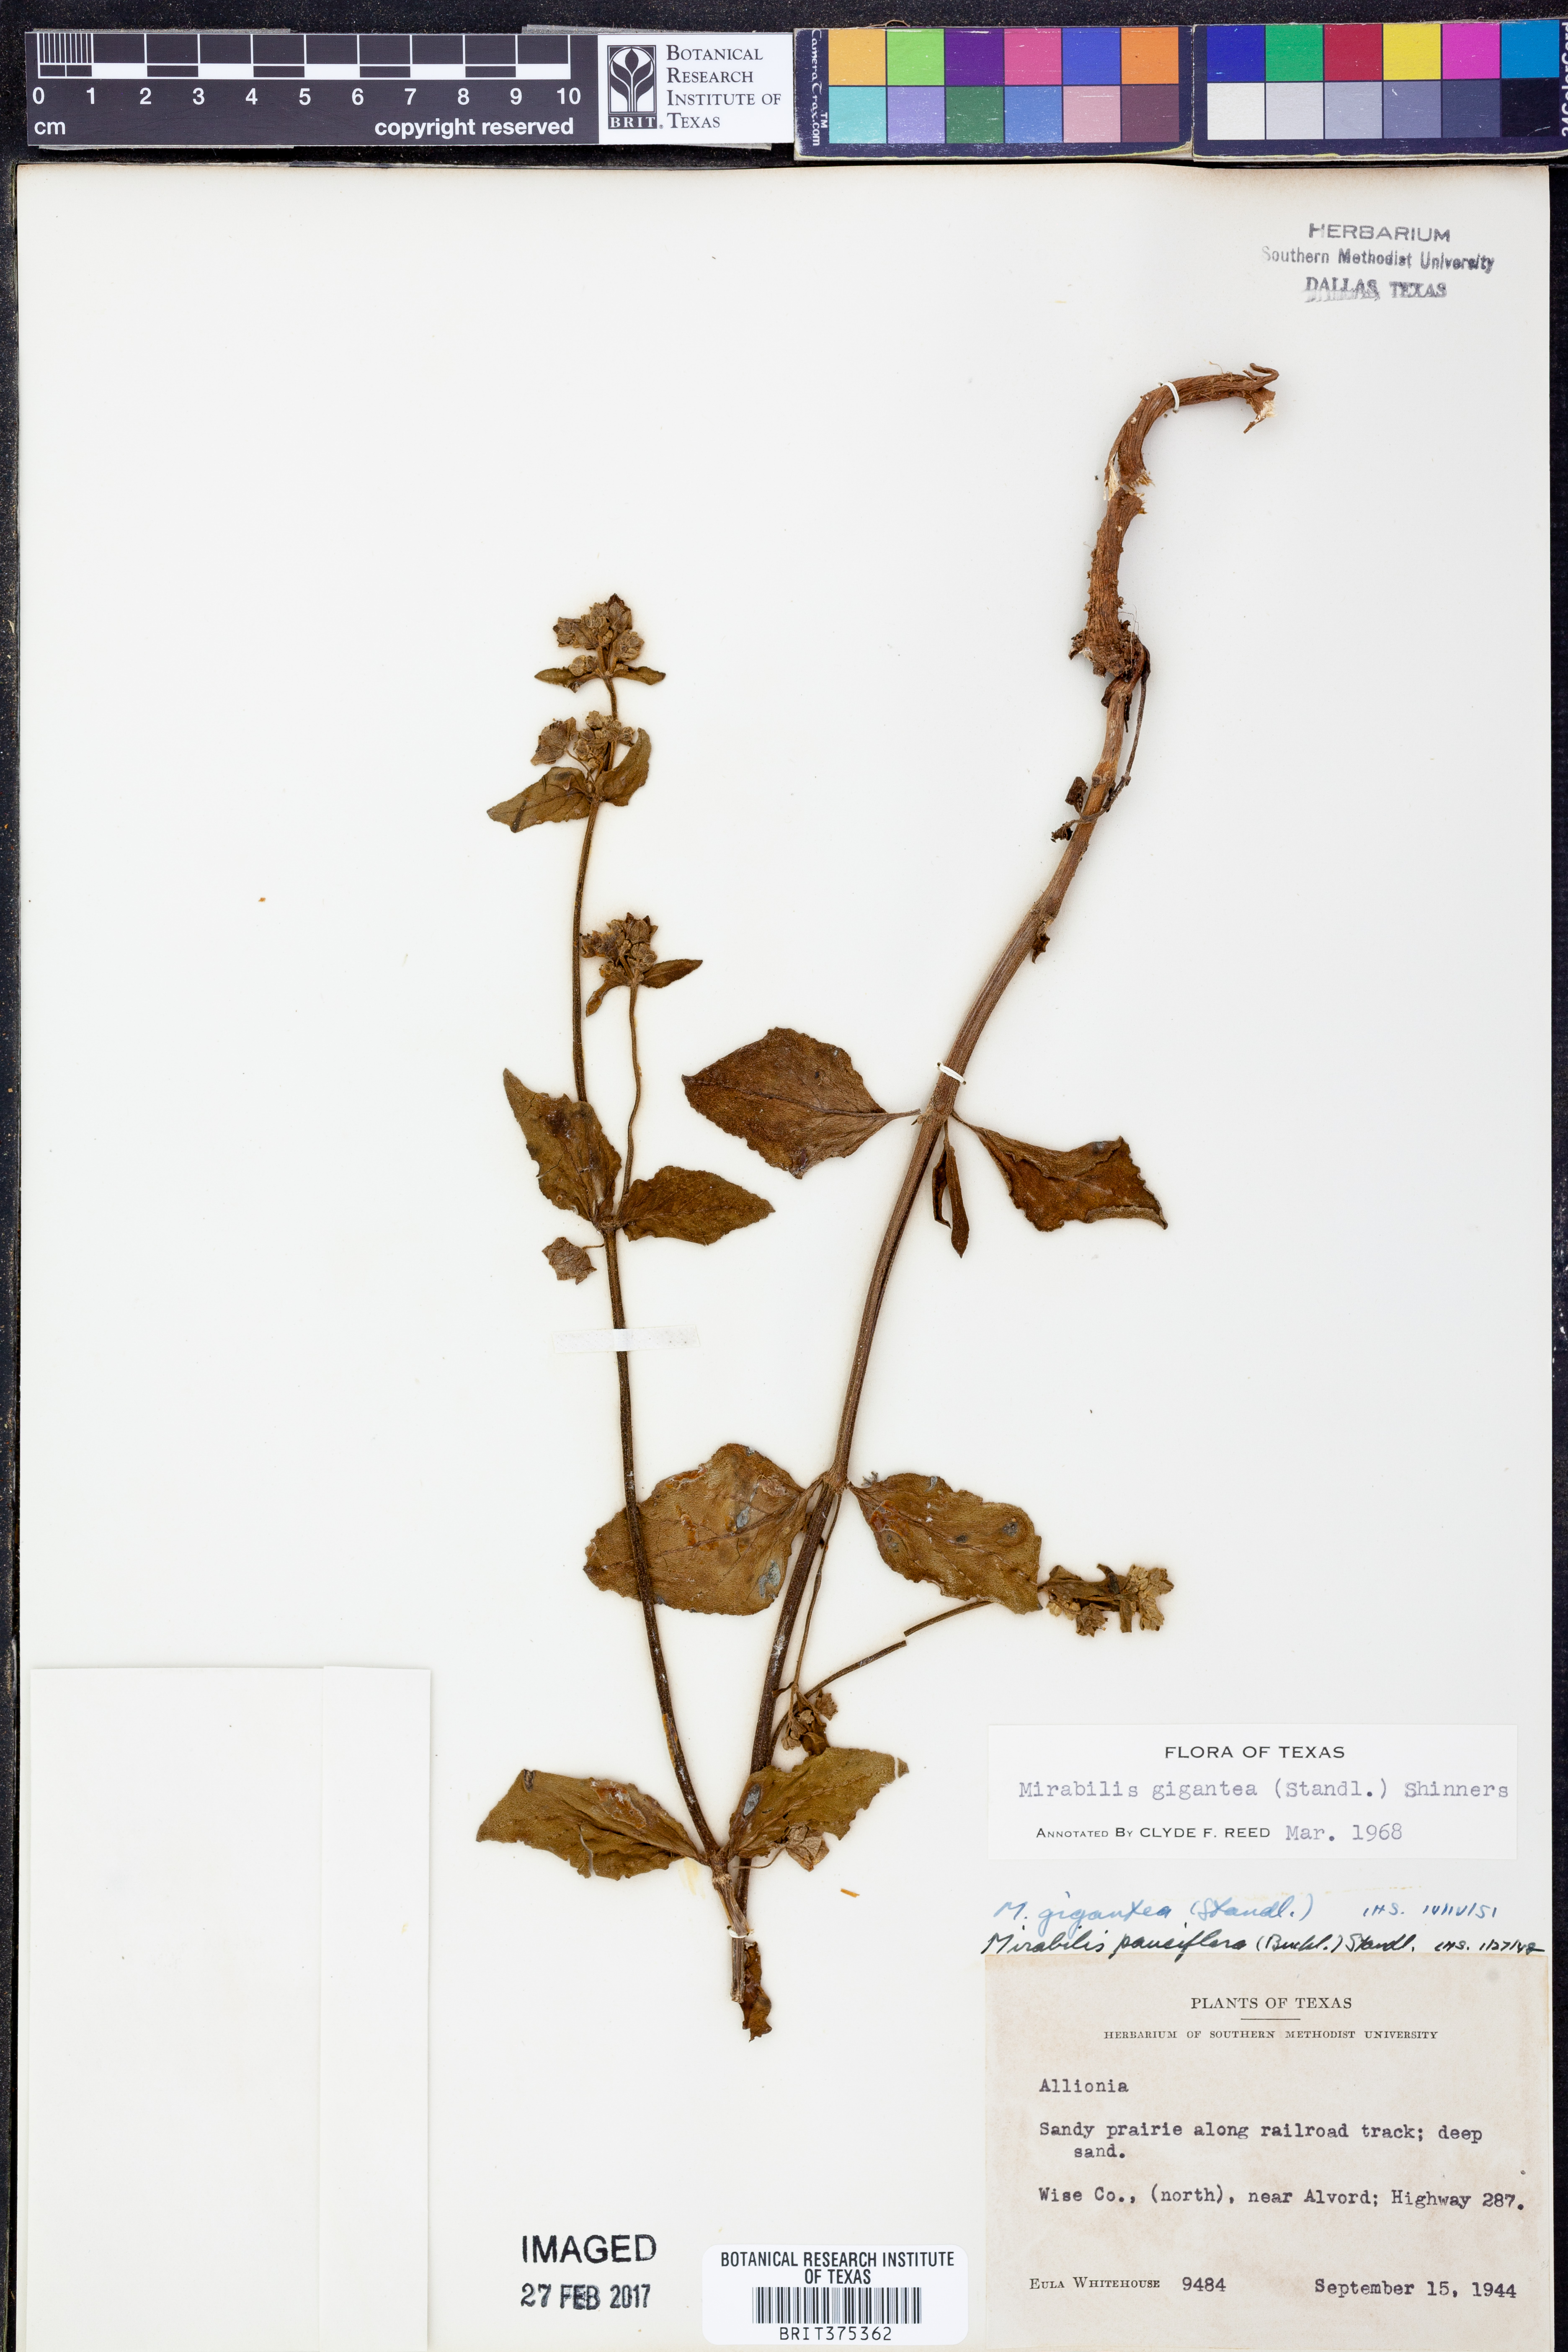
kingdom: Plantae
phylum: Tracheophyta
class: Magnoliopsida
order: Caryophyllales
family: Nyctaginaceae
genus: Mirabilis
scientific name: Mirabilis gigantea
